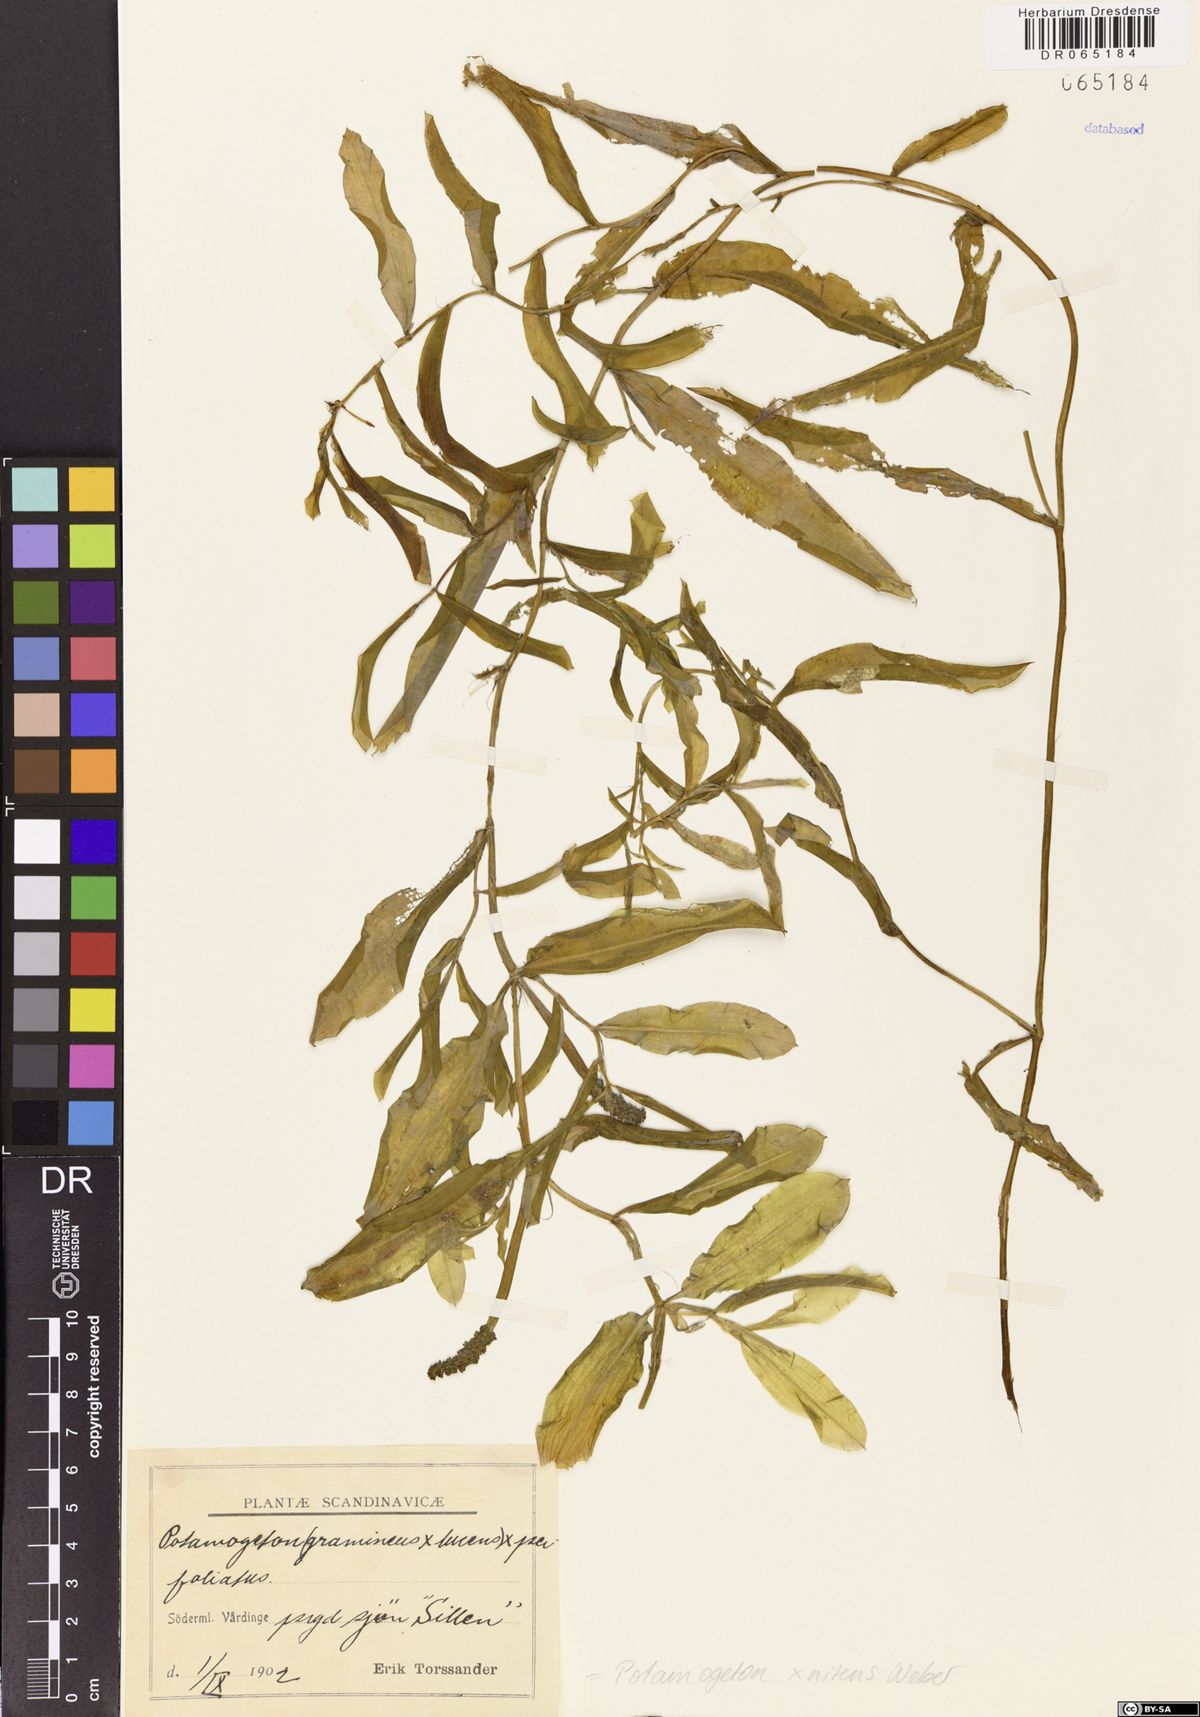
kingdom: Plantae
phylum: Tracheophyta
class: Liliopsida
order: Alismatales
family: Potamogetonaceae
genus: Potamogeton
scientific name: Potamogeton nitens
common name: Pondweed
